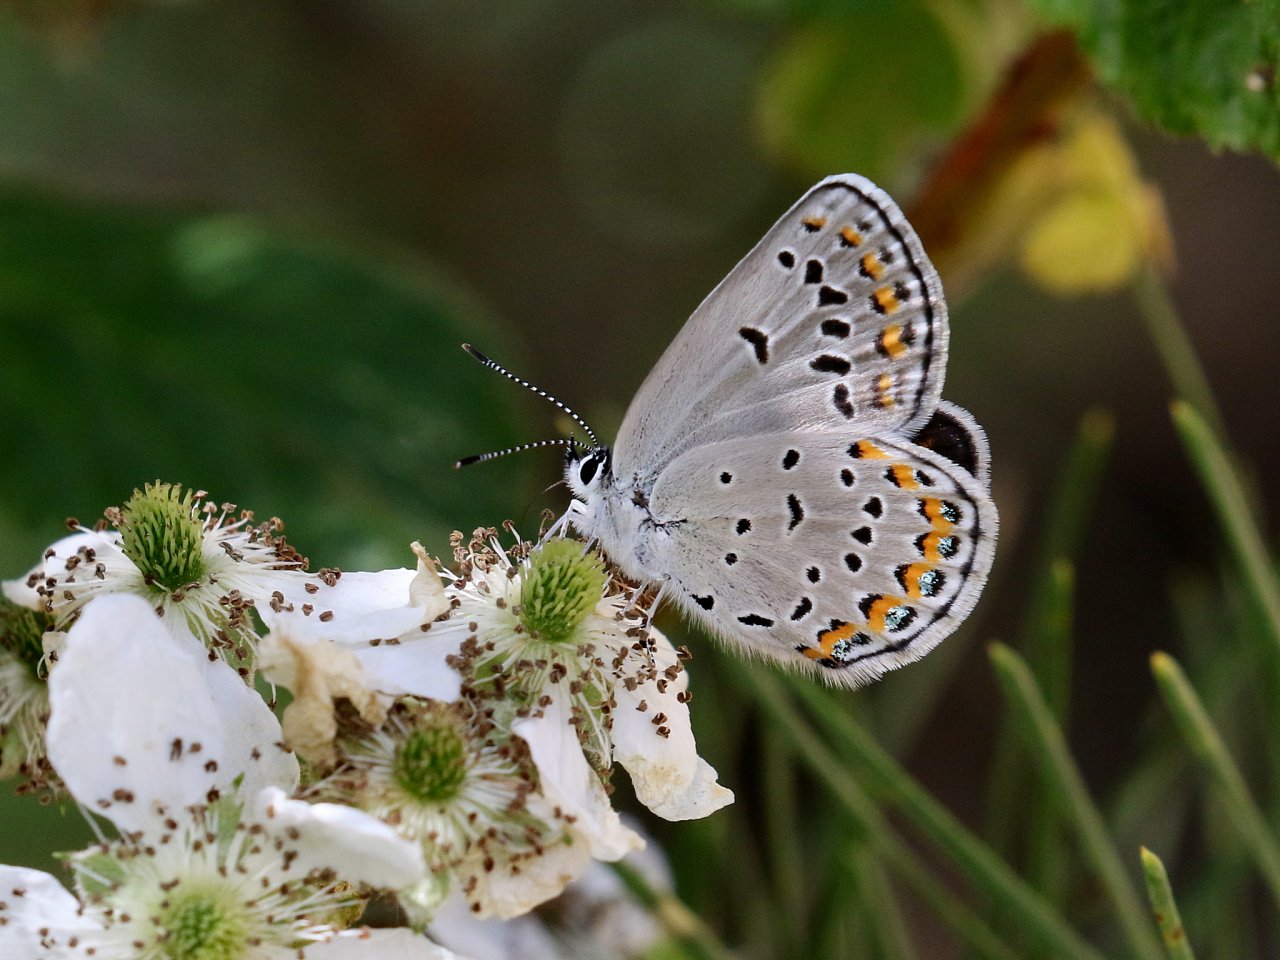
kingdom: Animalia
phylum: Arthropoda
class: Insecta
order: Lepidoptera
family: Lycaenidae
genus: Plebejus
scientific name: Plebejus samuelis
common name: Karner Blue
